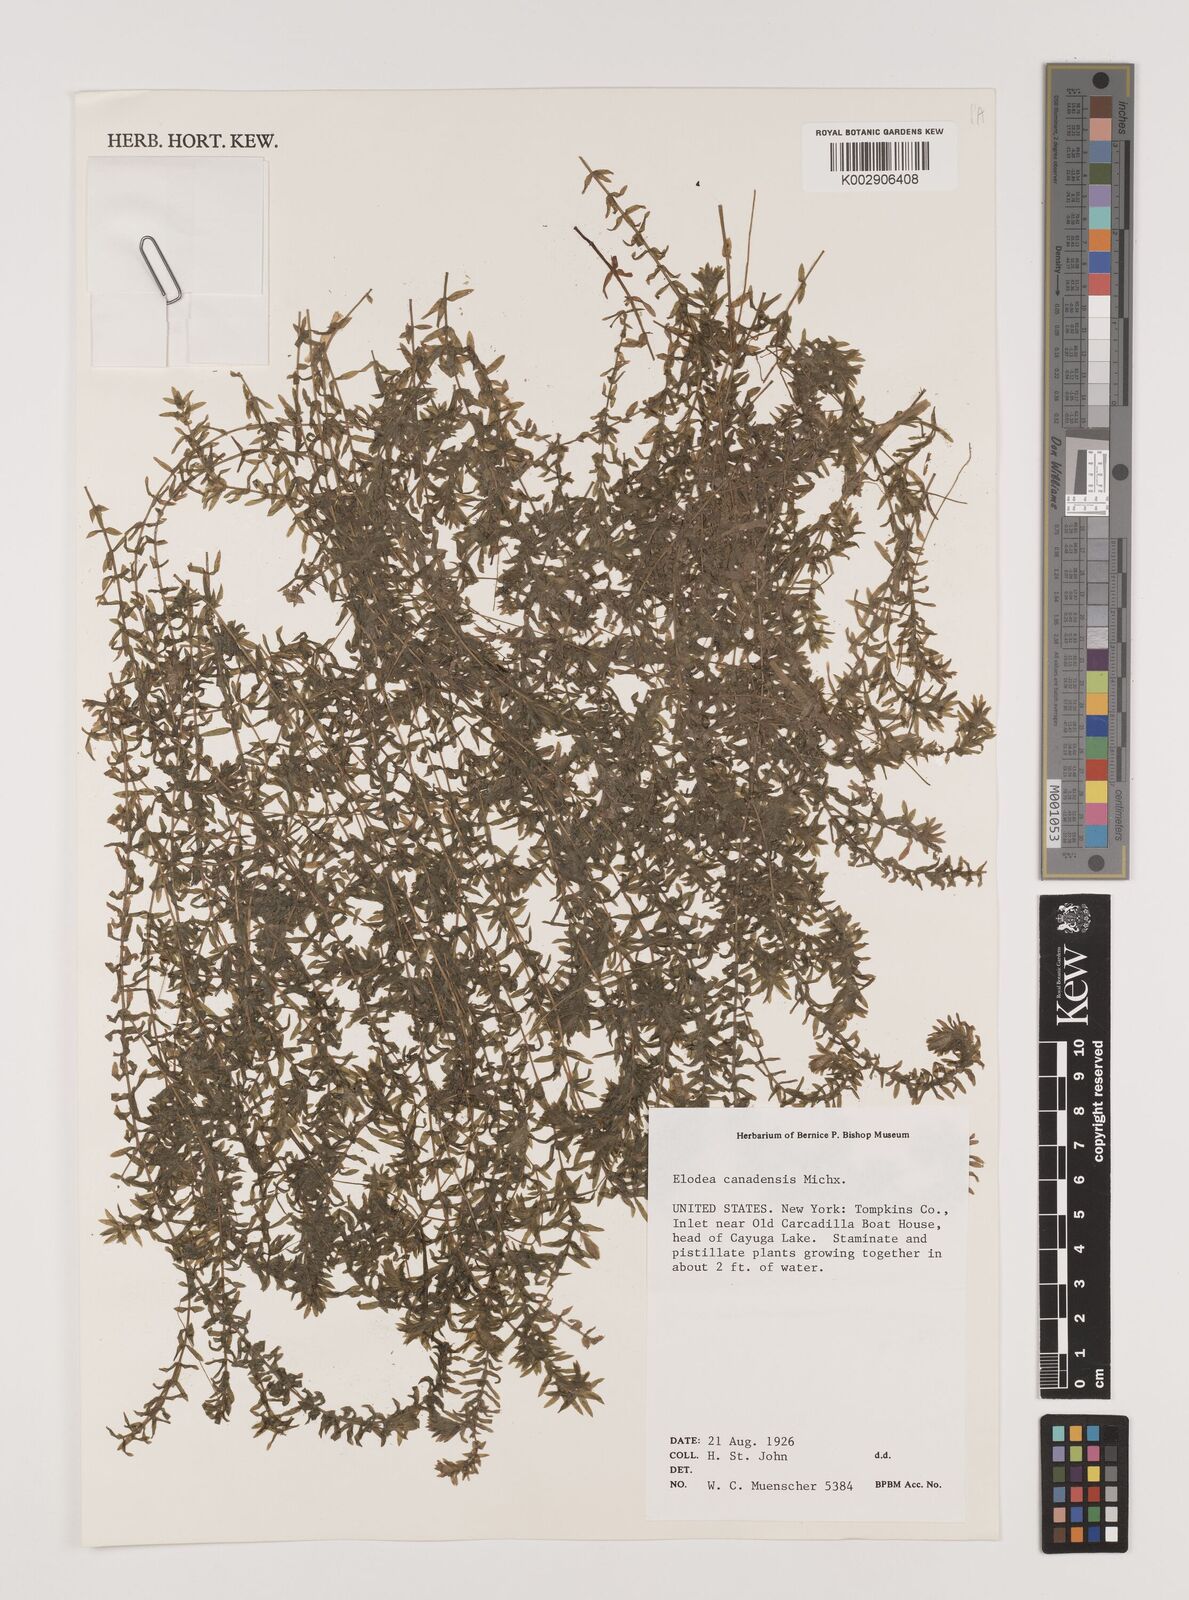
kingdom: Plantae
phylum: Tracheophyta
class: Liliopsida
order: Alismatales
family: Hydrocharitaceae
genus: Elodea
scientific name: Elodea canadensis
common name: Canadian waterweed
